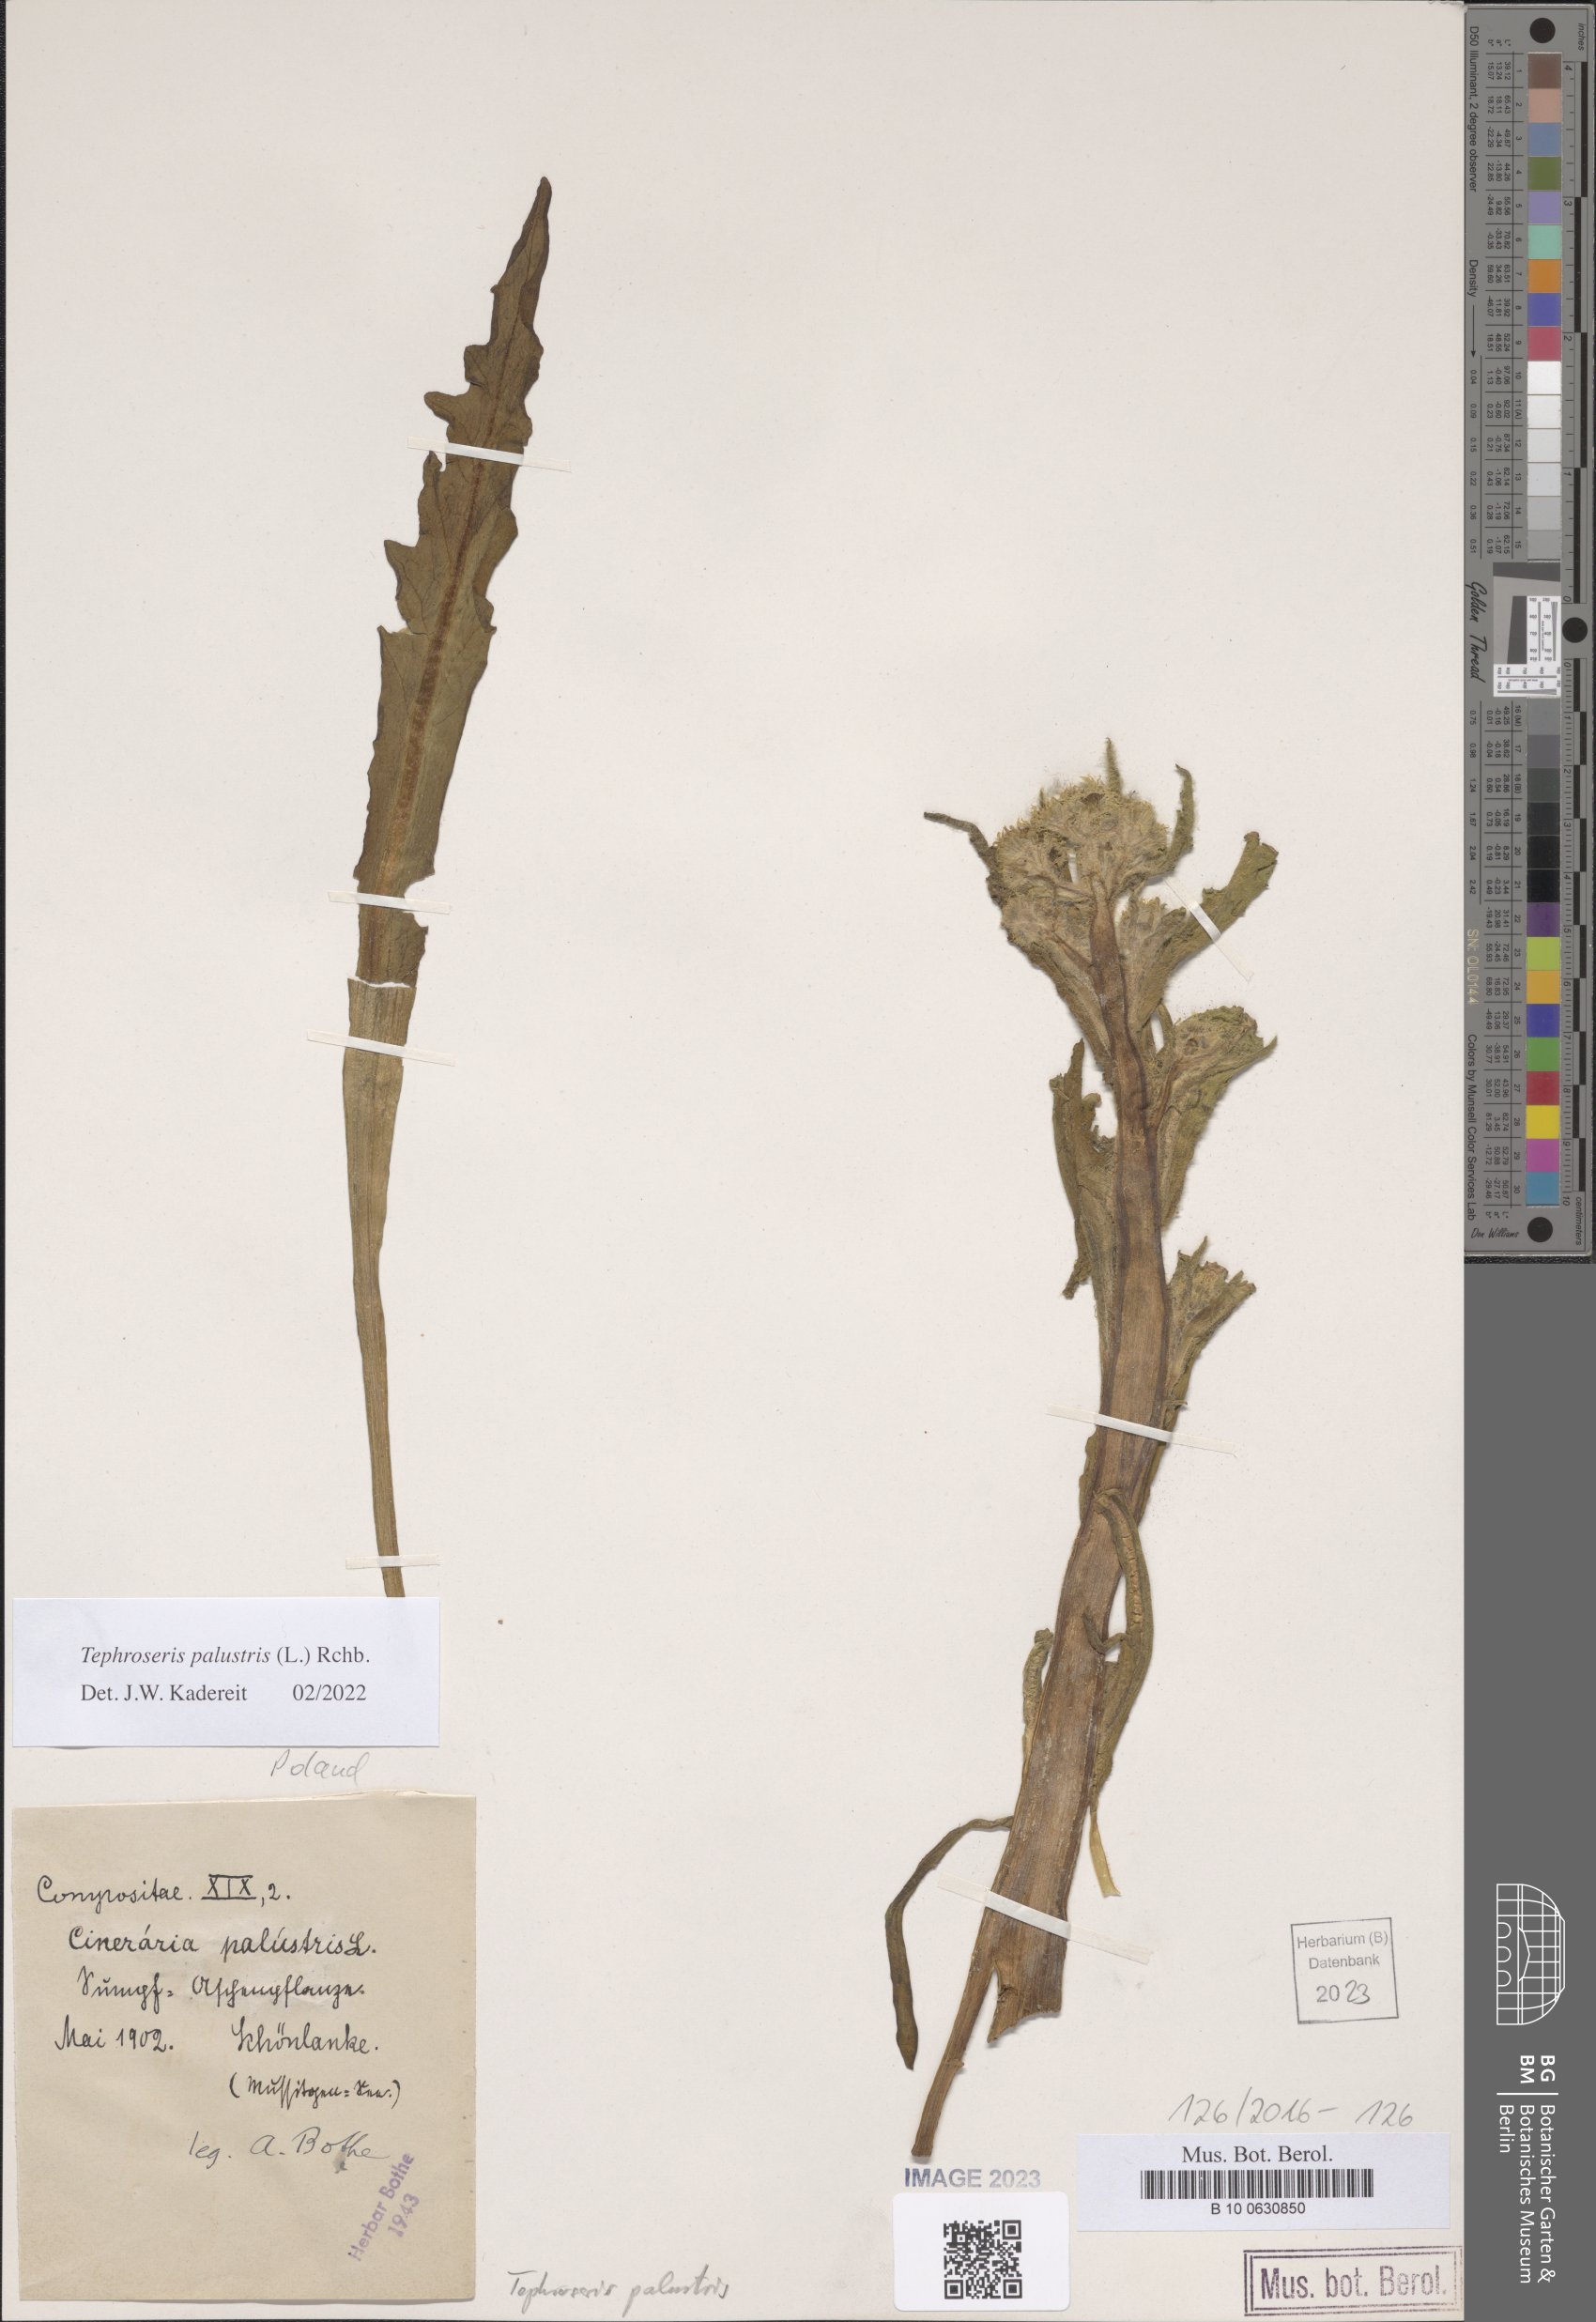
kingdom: Plantae
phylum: Tracheophyta
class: Magnoliopsida
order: Asterales
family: Asteraceae
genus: Tephroseris
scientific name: Tephroseris palustris
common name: Marsh fleawort
